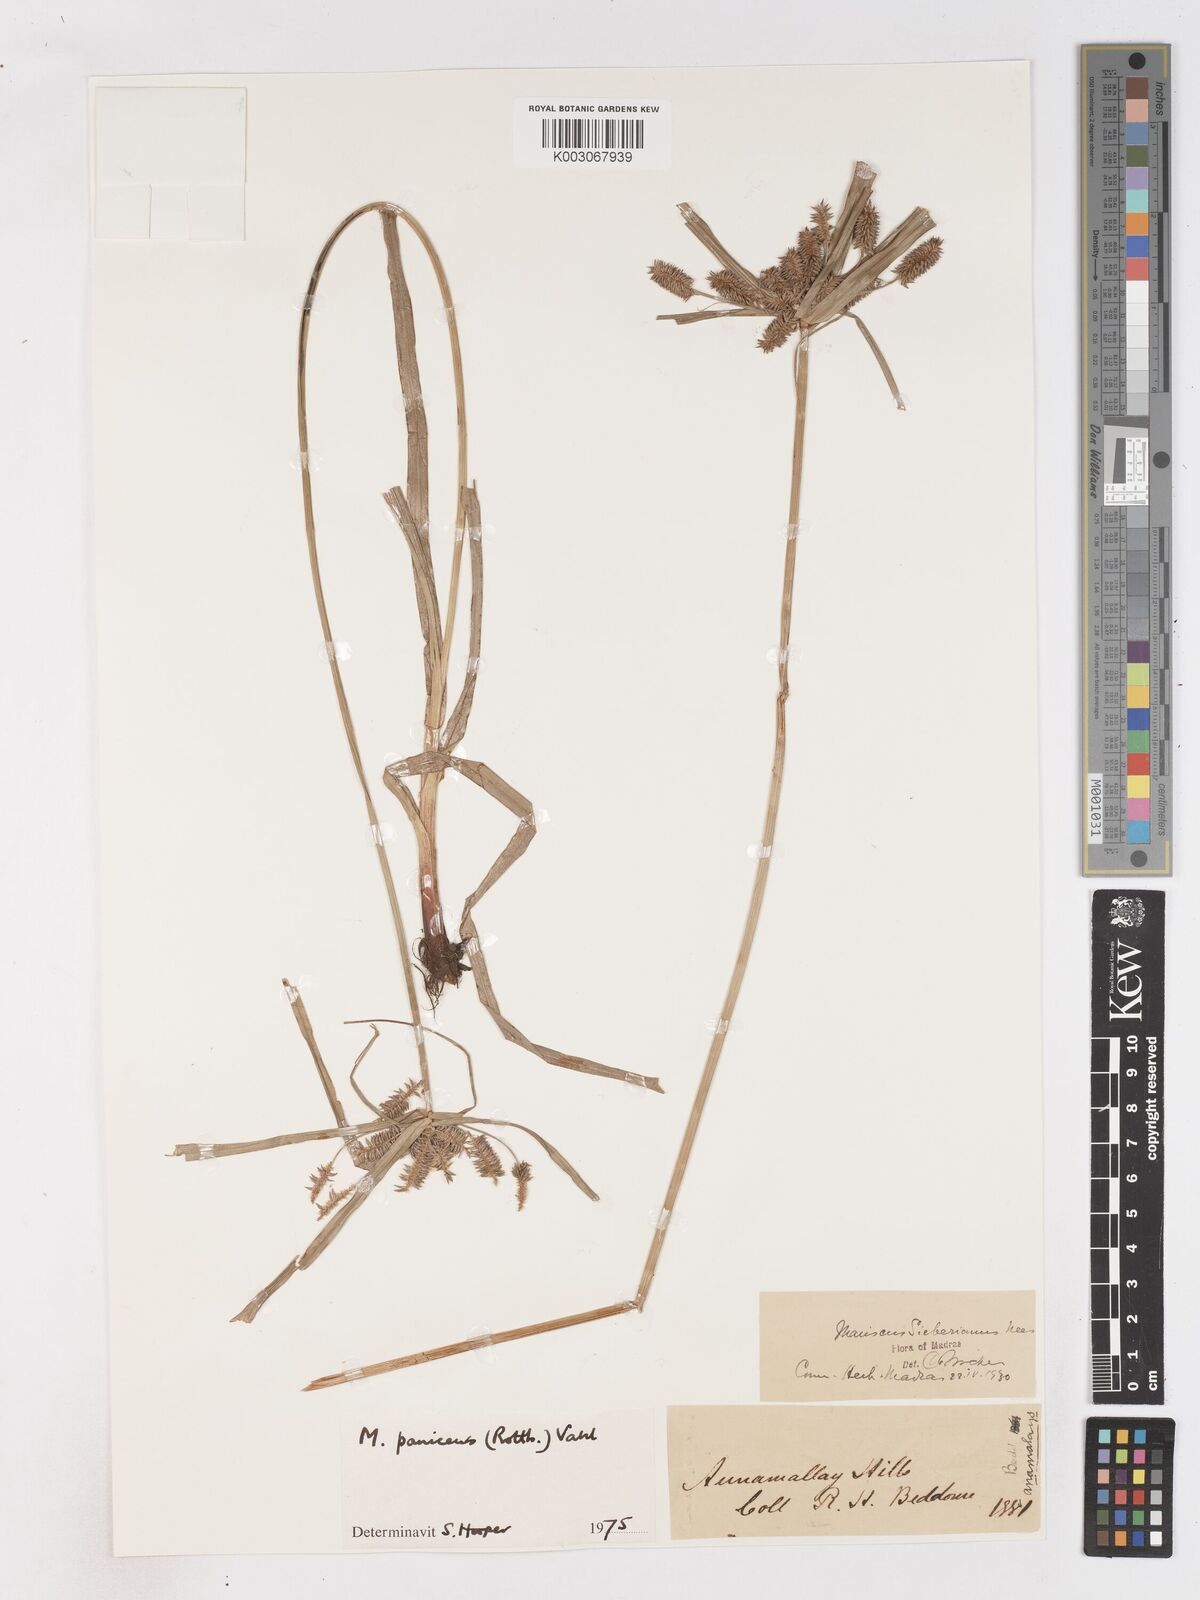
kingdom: Plantae
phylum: Tracheophyta
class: Liliopsida
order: Poales
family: Cyperaceae
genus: Cyperus
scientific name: Cyperus paniceus
